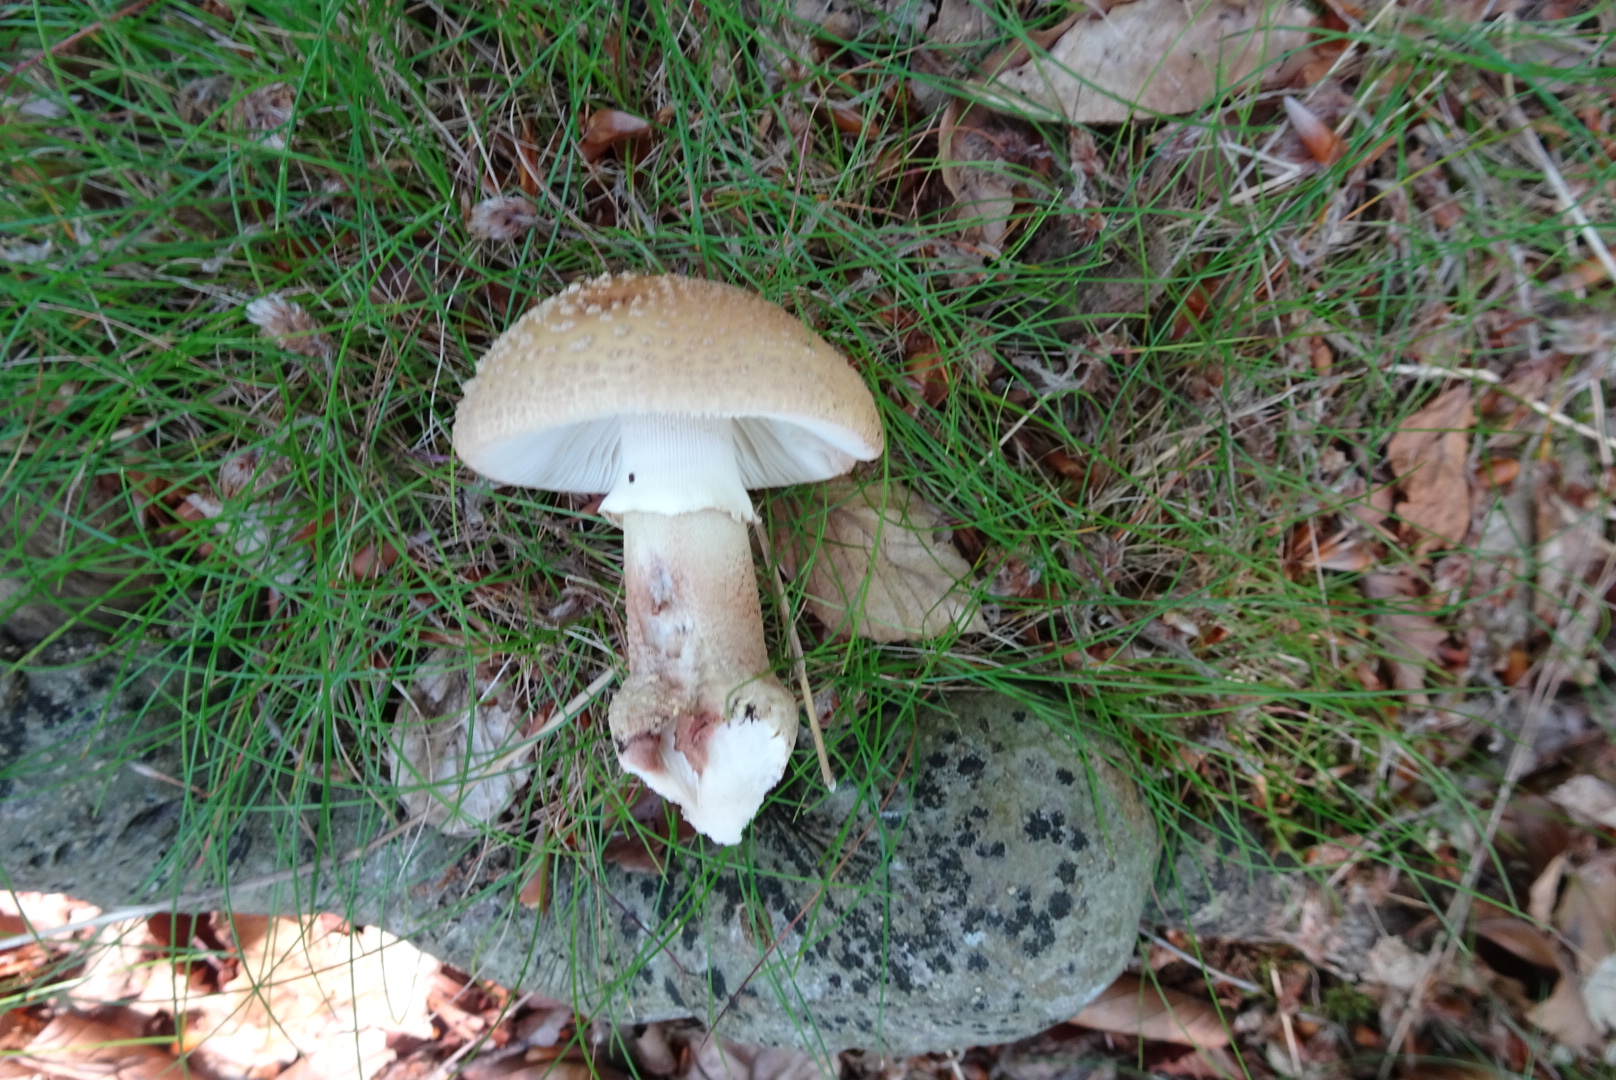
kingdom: Fungi
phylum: Basidiomycota
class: Agaricomycetes
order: Agaricales
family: Amanitaceae
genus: Amanita
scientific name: Amanita rubescens
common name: rødmende fluesvamp
